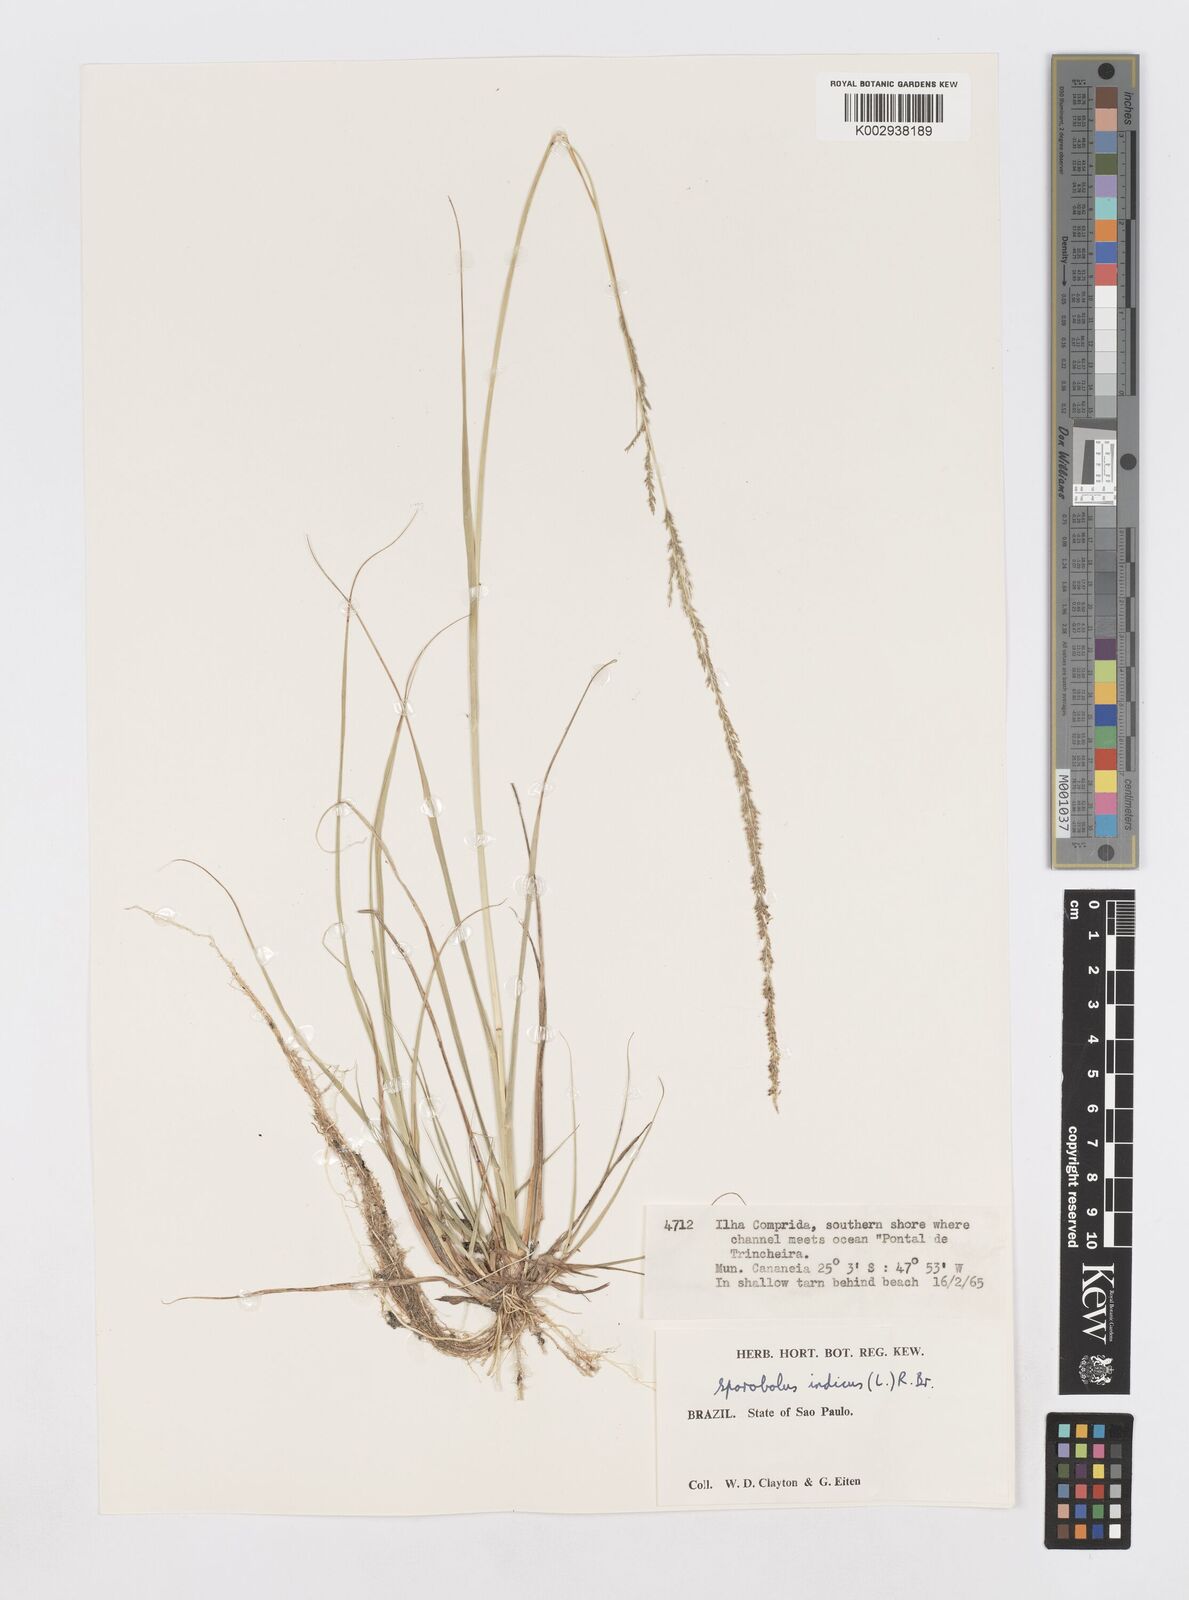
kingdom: Plantae
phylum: Tracheophyta
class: Liliopsida
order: Poales
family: Poaceae
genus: Sporobolus
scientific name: Sporobolus indicus
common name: Smut grass
